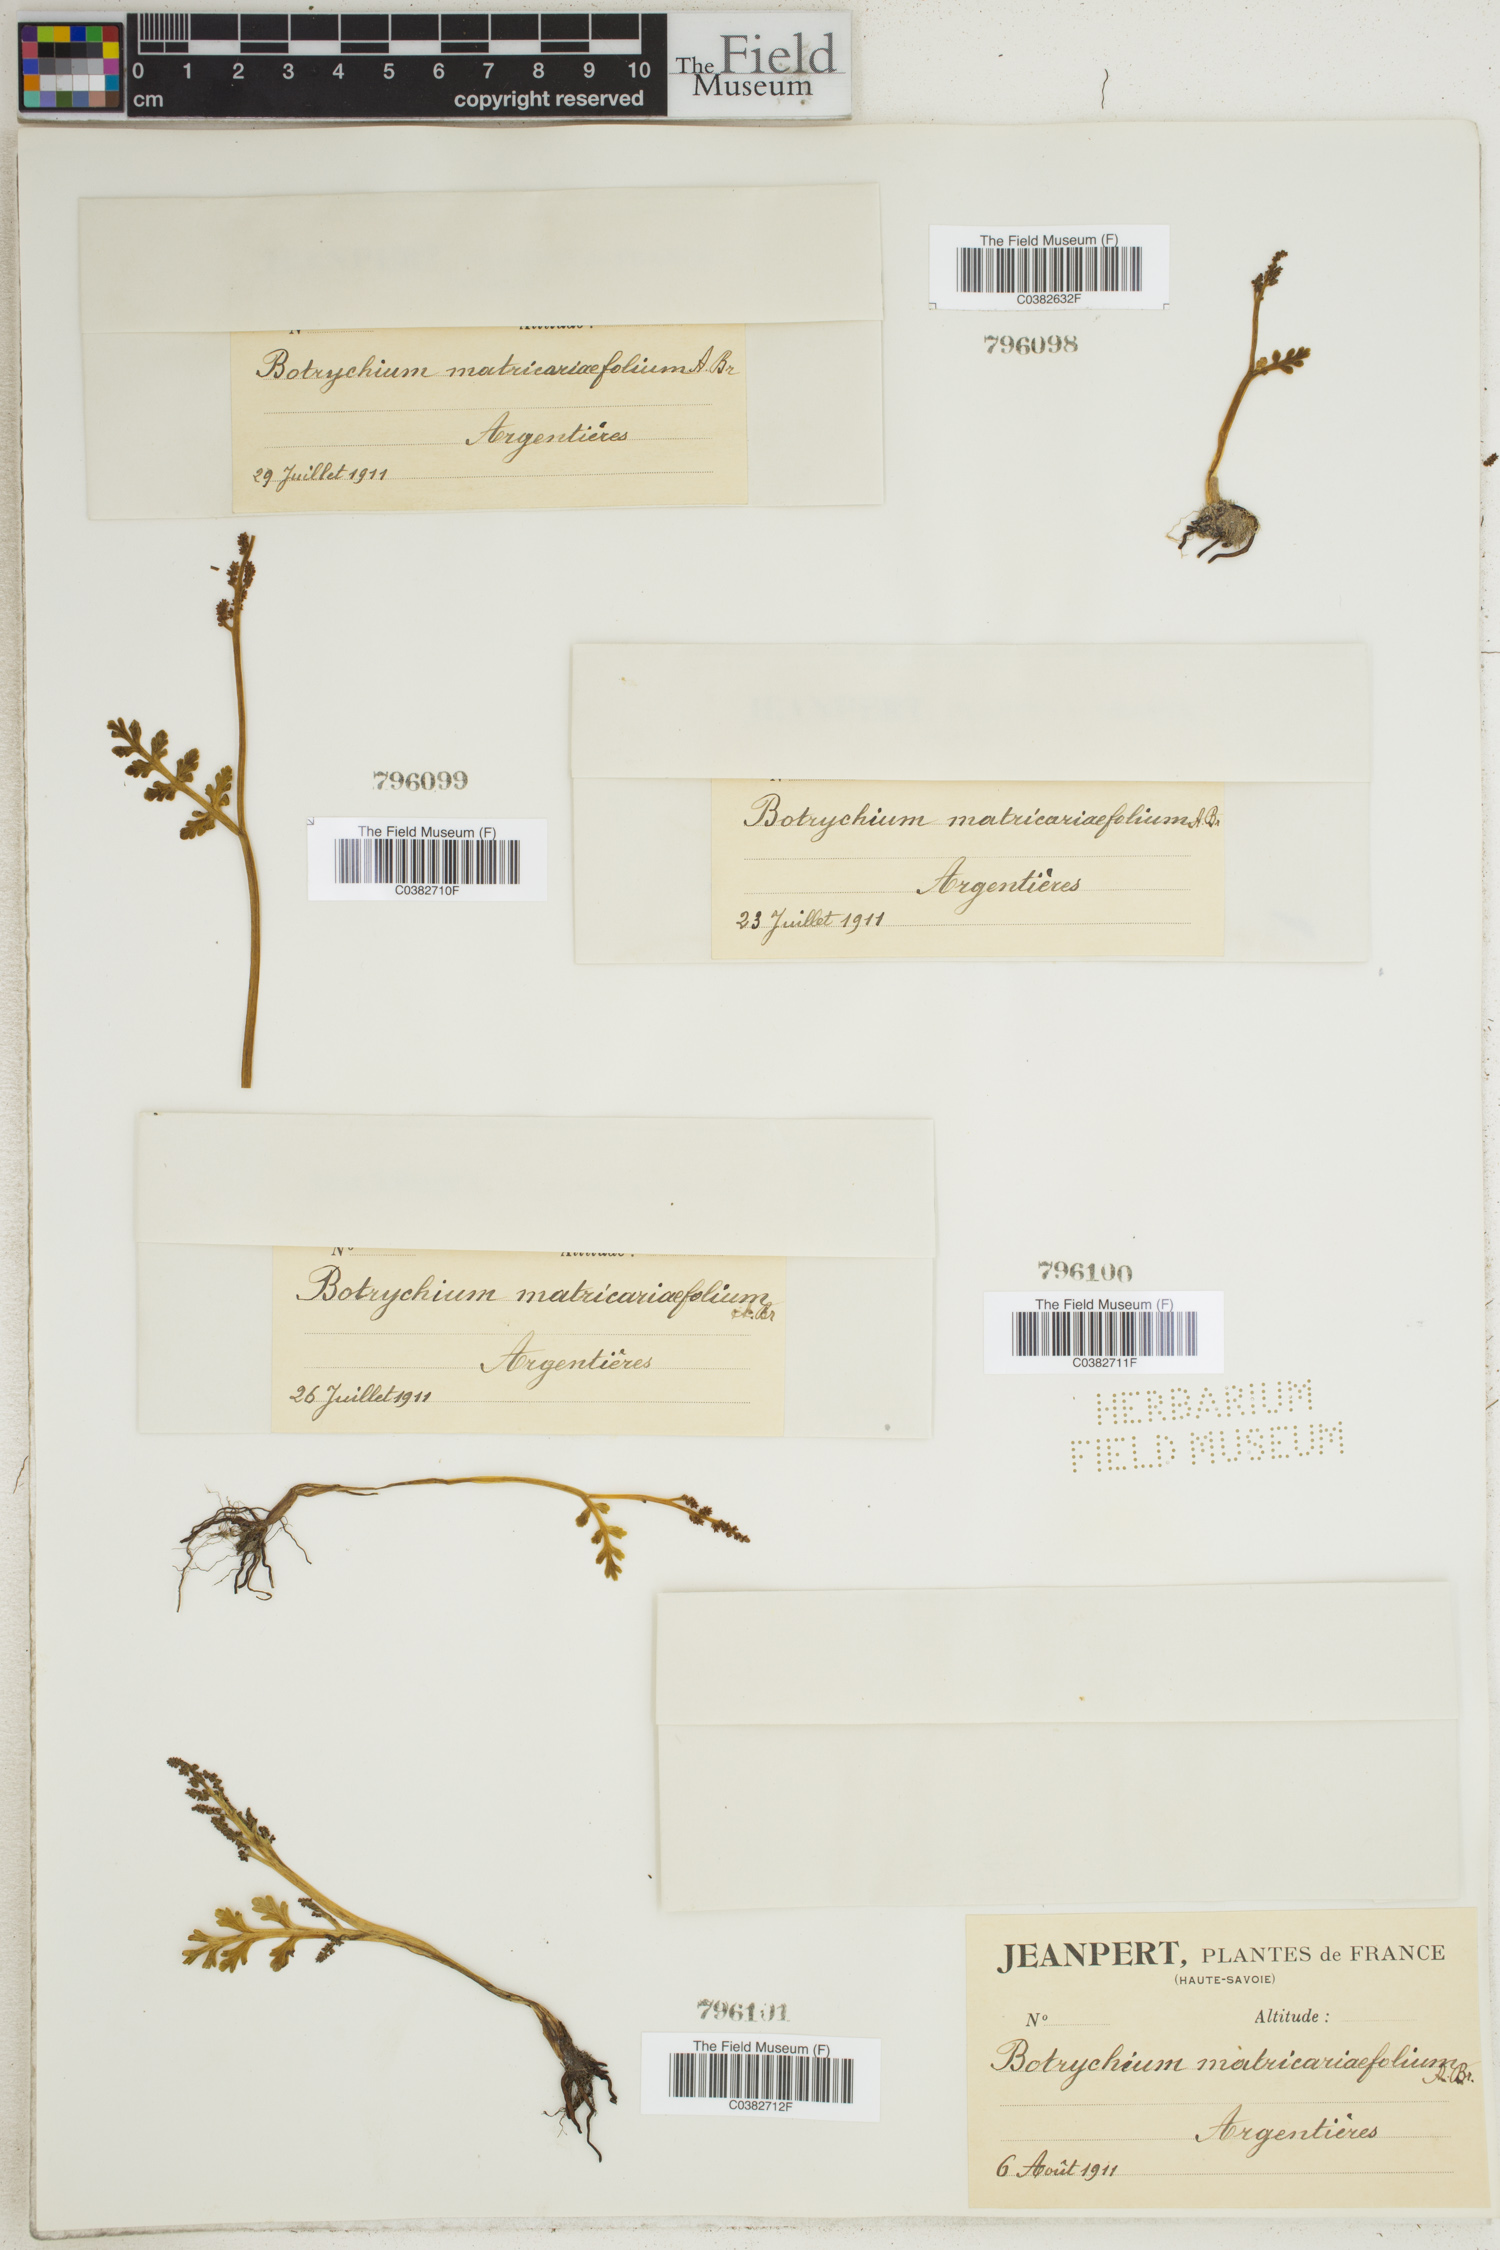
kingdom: Plantae
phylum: Tracheophyta
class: Polypodiopsida
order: Ophioglossales
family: Ophioglossaceae
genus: Botrychium
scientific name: Botrychium matricariifolium
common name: Branched moonwort
